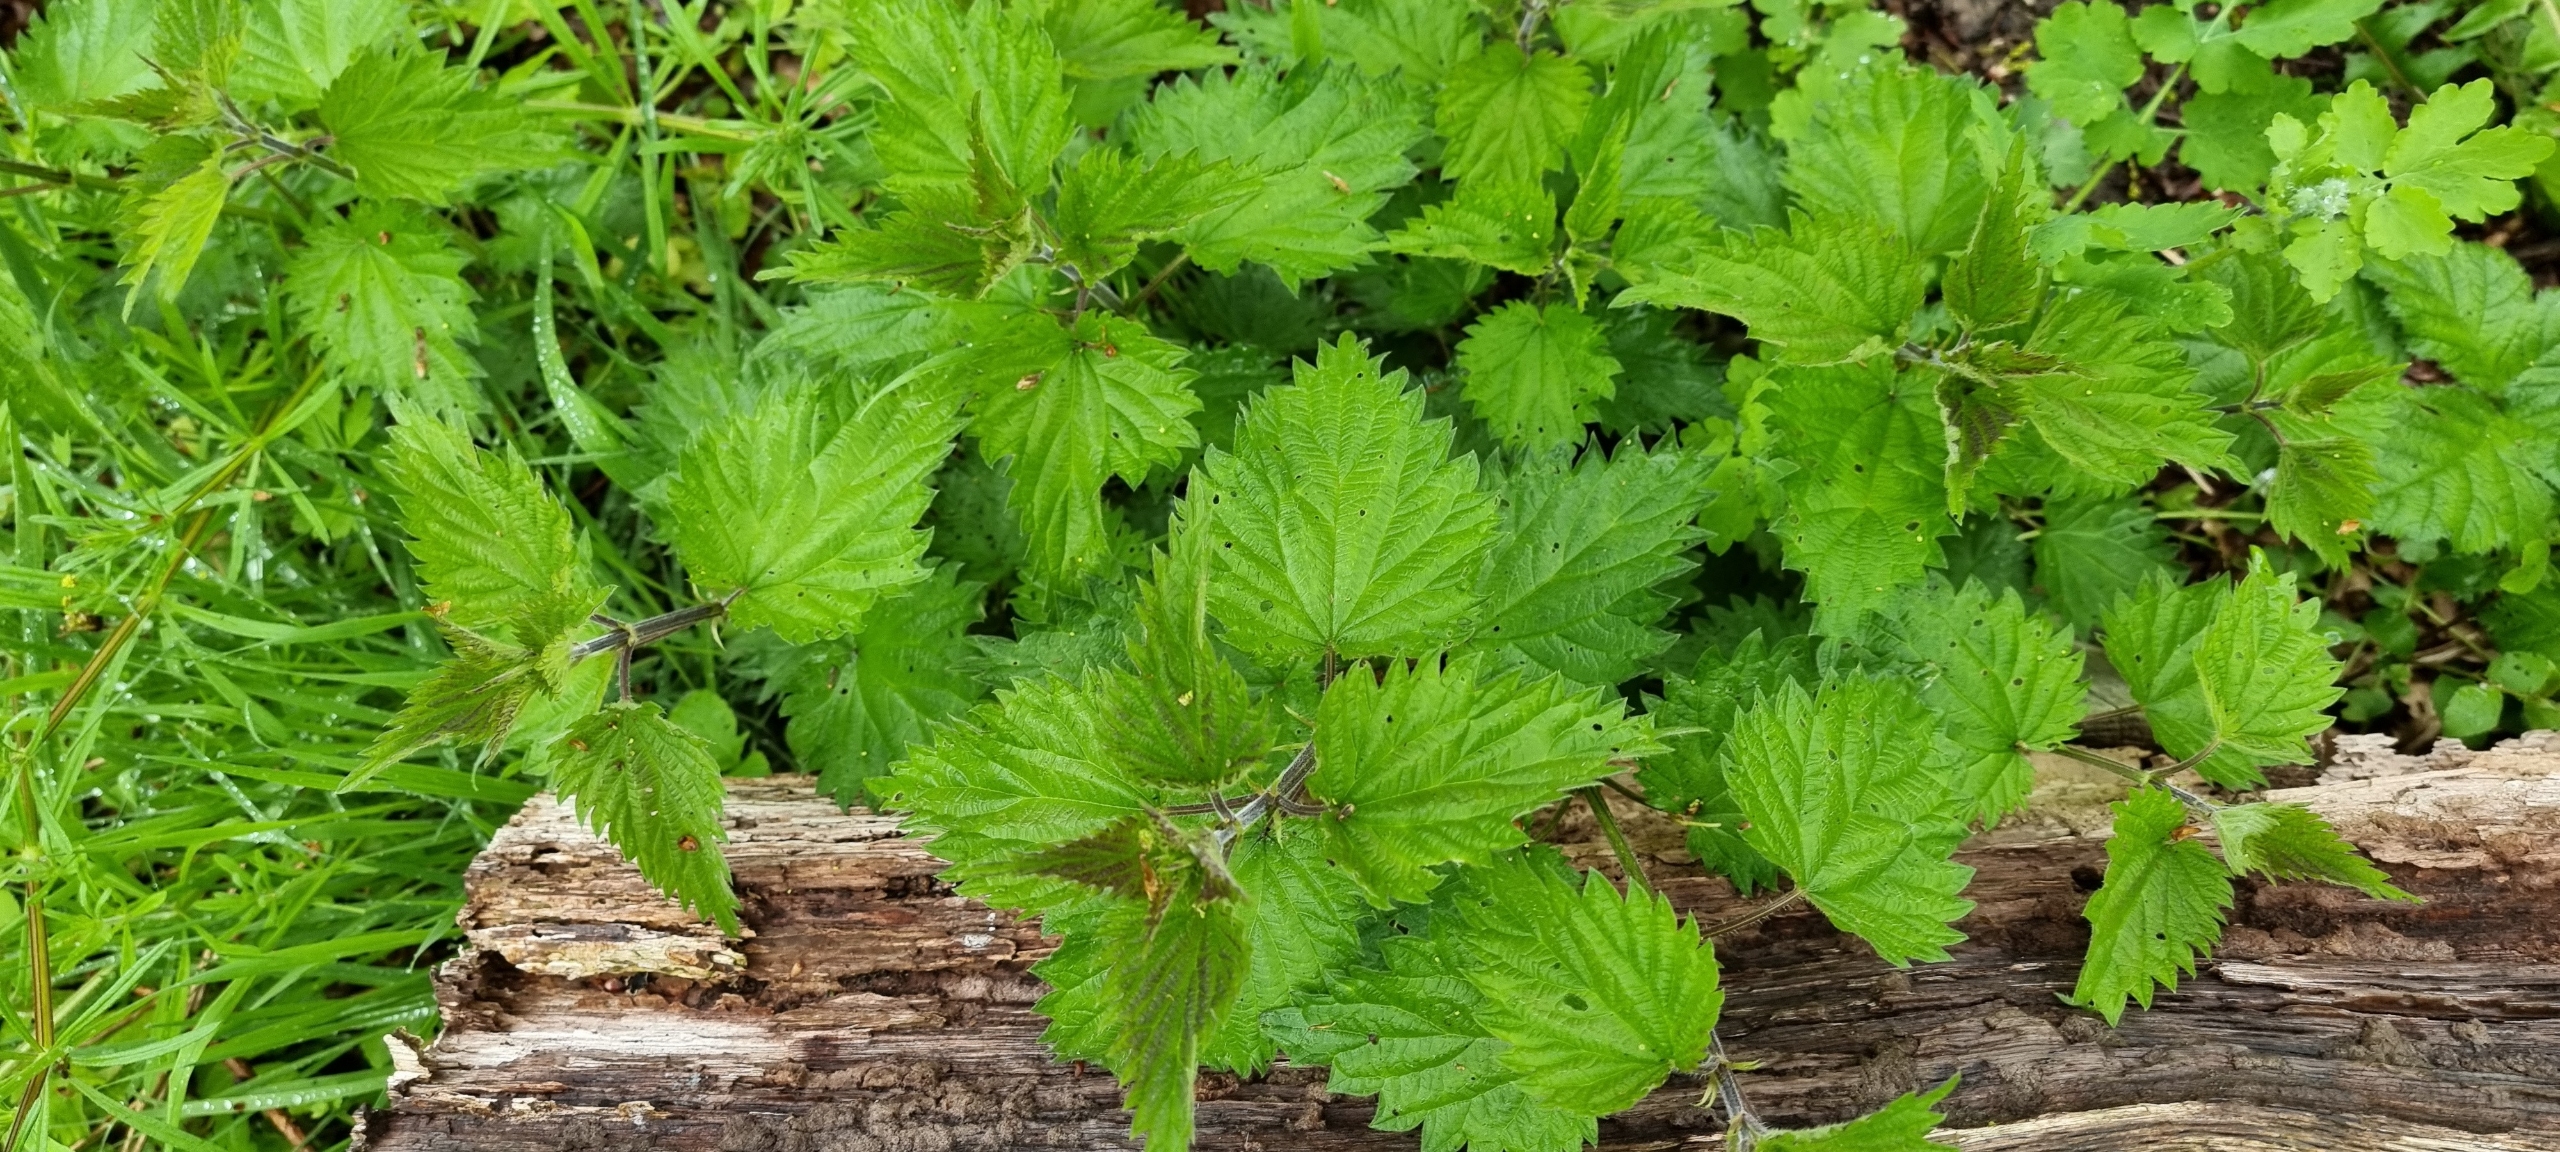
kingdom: Plantae
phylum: Tracheophyta
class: Magnoliopsida
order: Rosales
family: Urticaceae
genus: Urtica
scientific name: Urtica dioica
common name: Stor nælde
